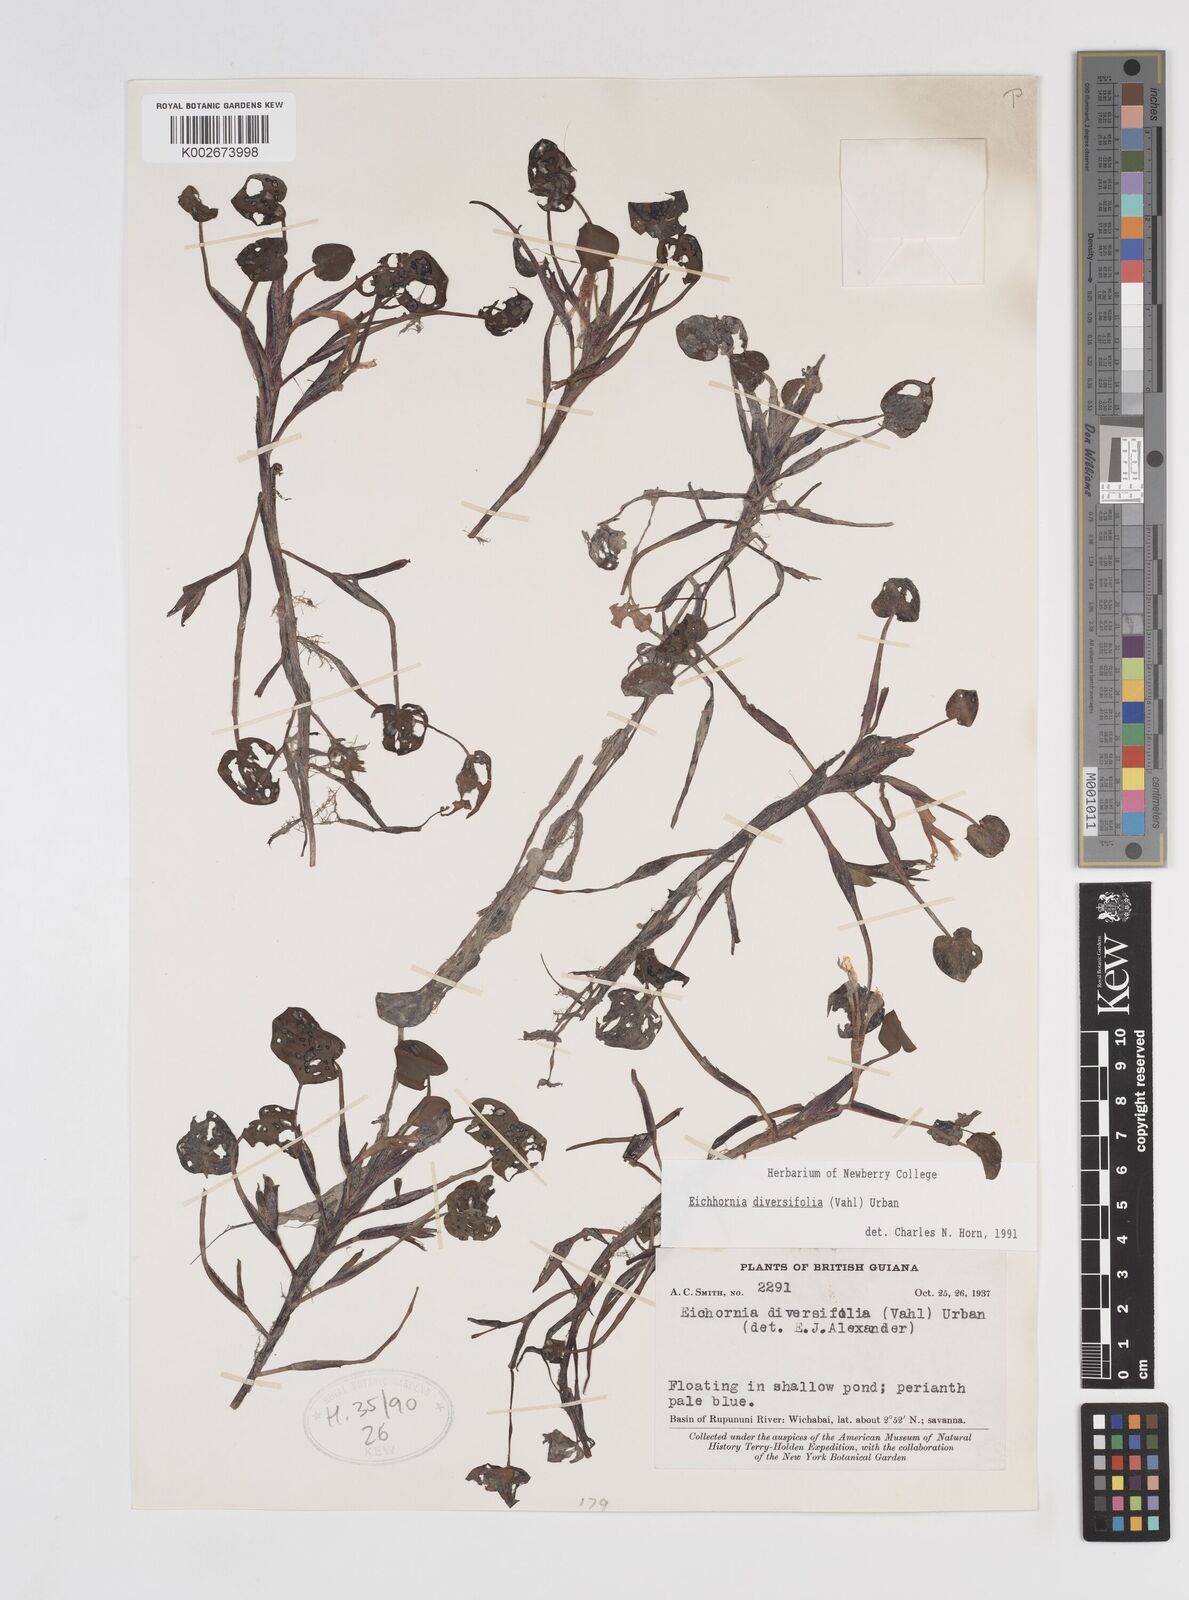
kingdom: Plantae
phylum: Tracheophyta
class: Liliopsida
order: Commelinales
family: Pontederiaceae
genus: Pontederia
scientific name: Pontederia diversifolia
